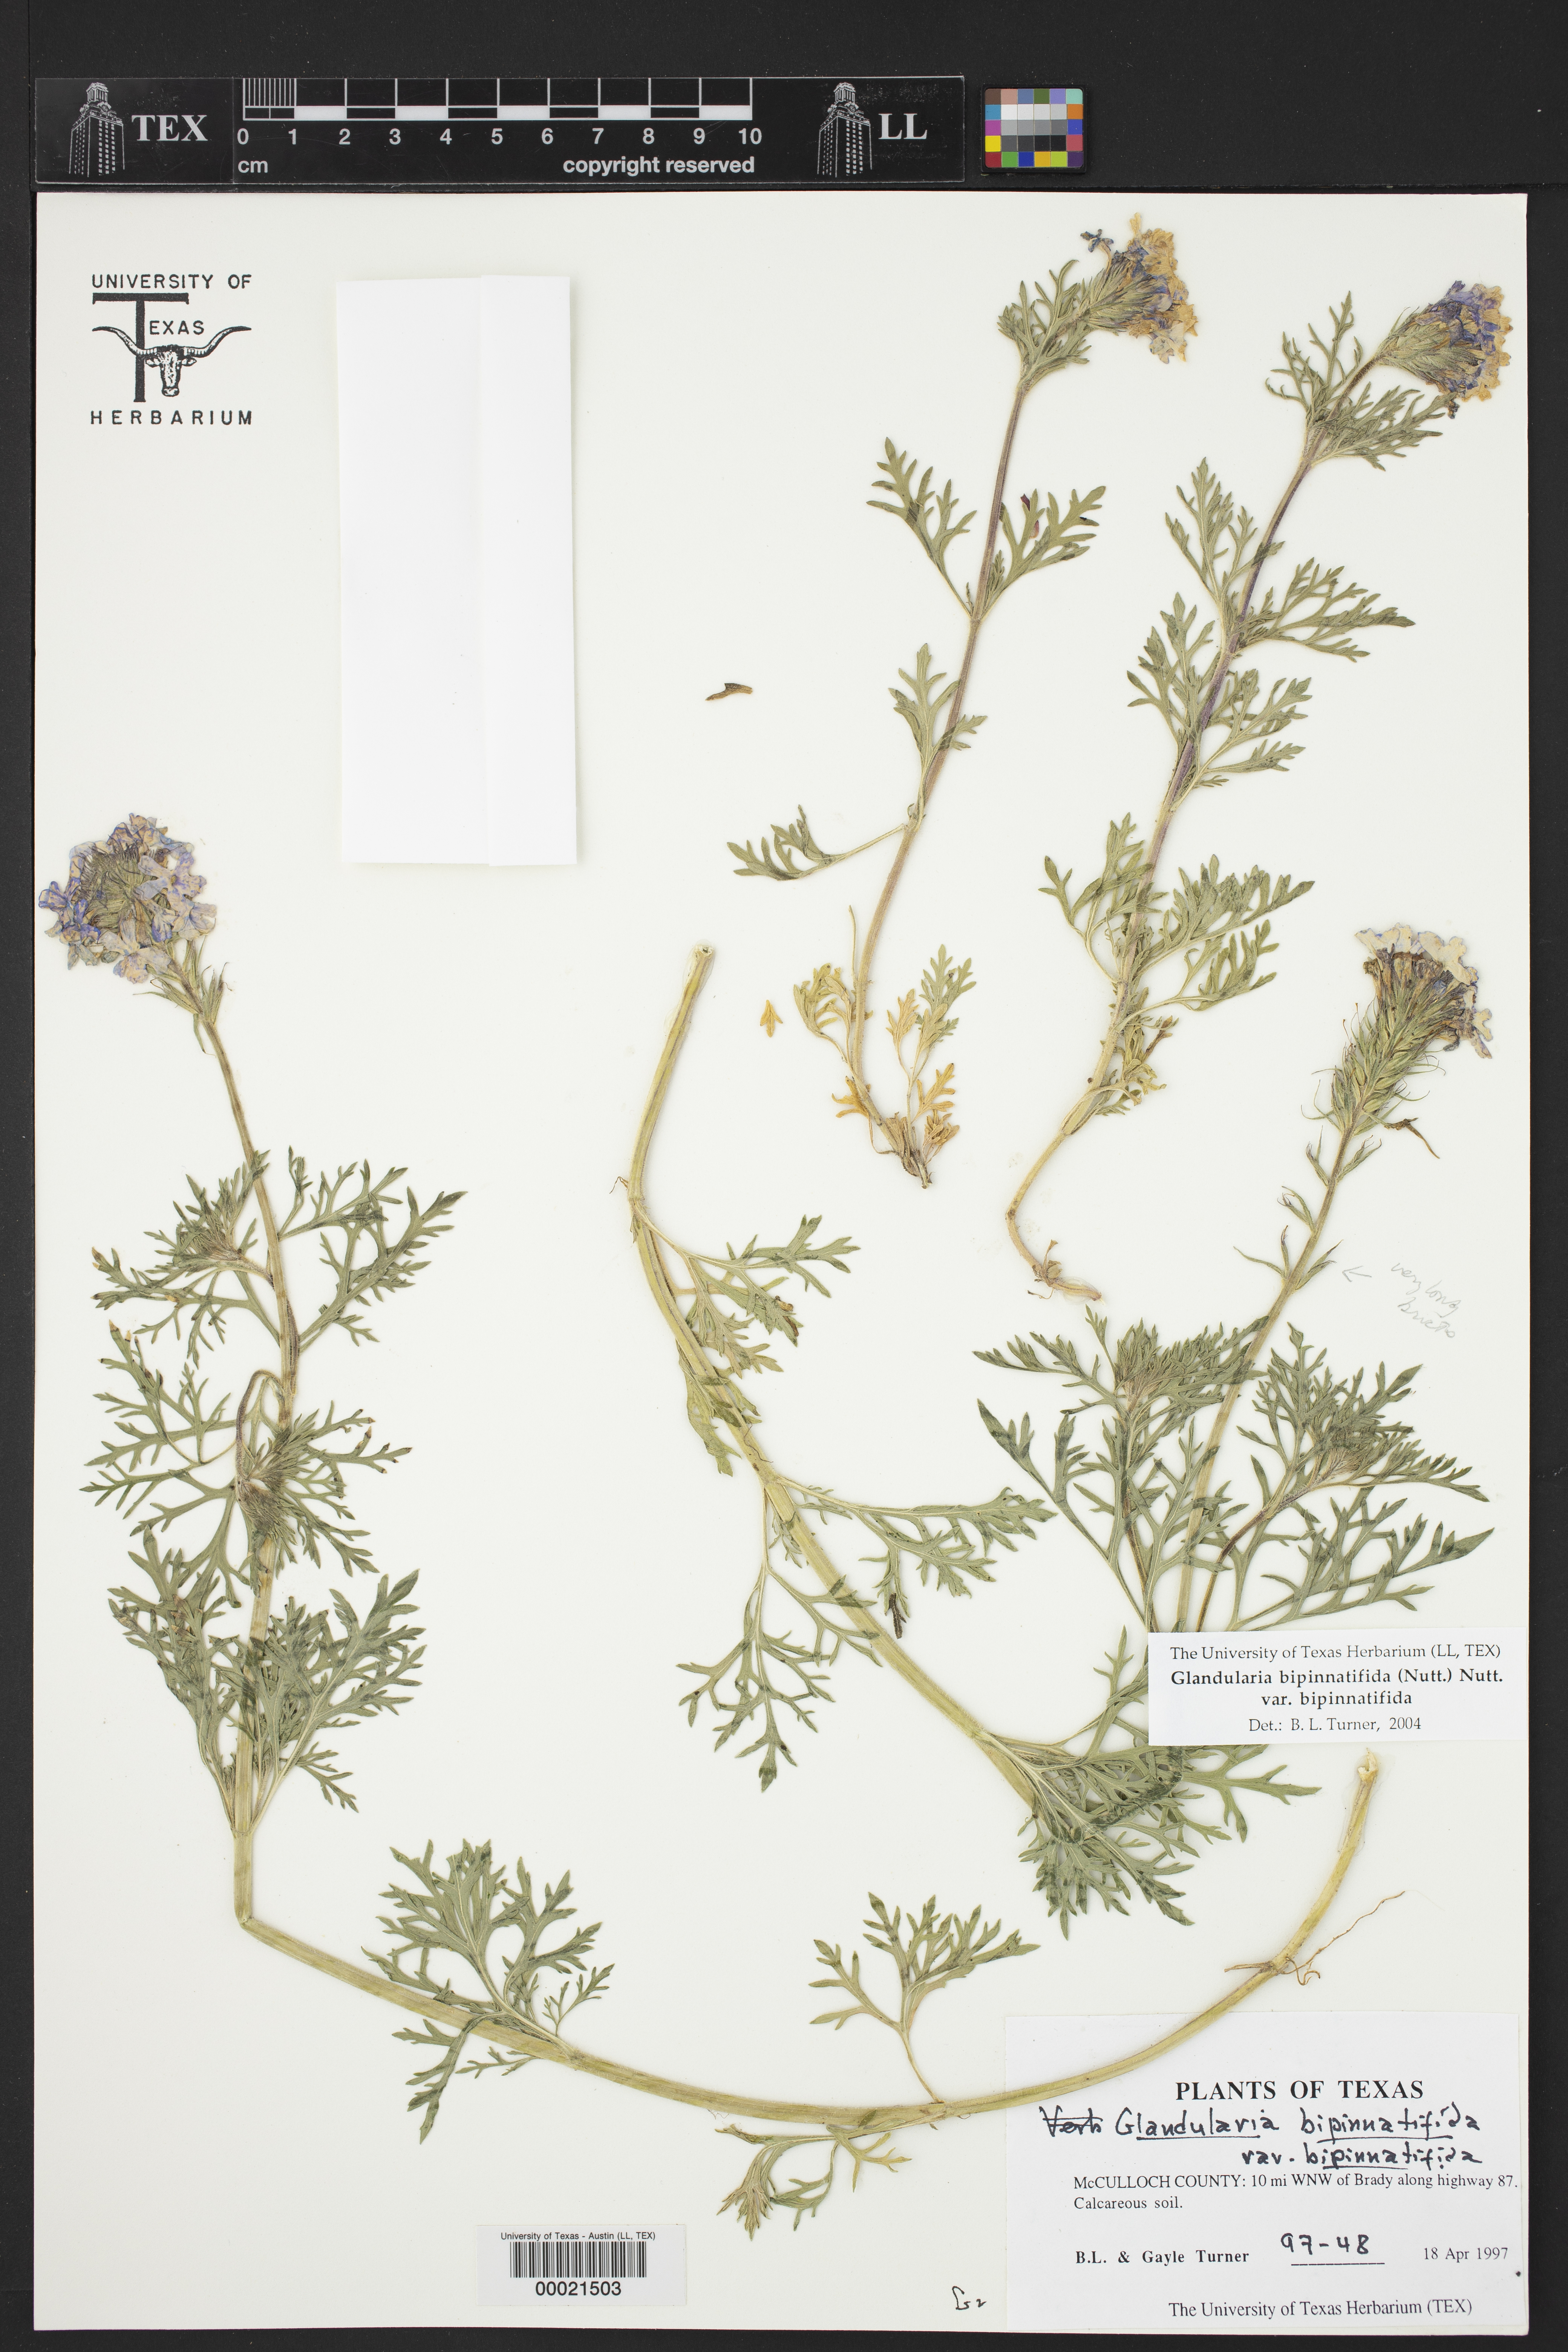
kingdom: Plantae
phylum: Tracheophyta
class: Magnoliopsida
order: Lamiales
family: Verbenaceae
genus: Verbena
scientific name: Verbena bipinnatifida
